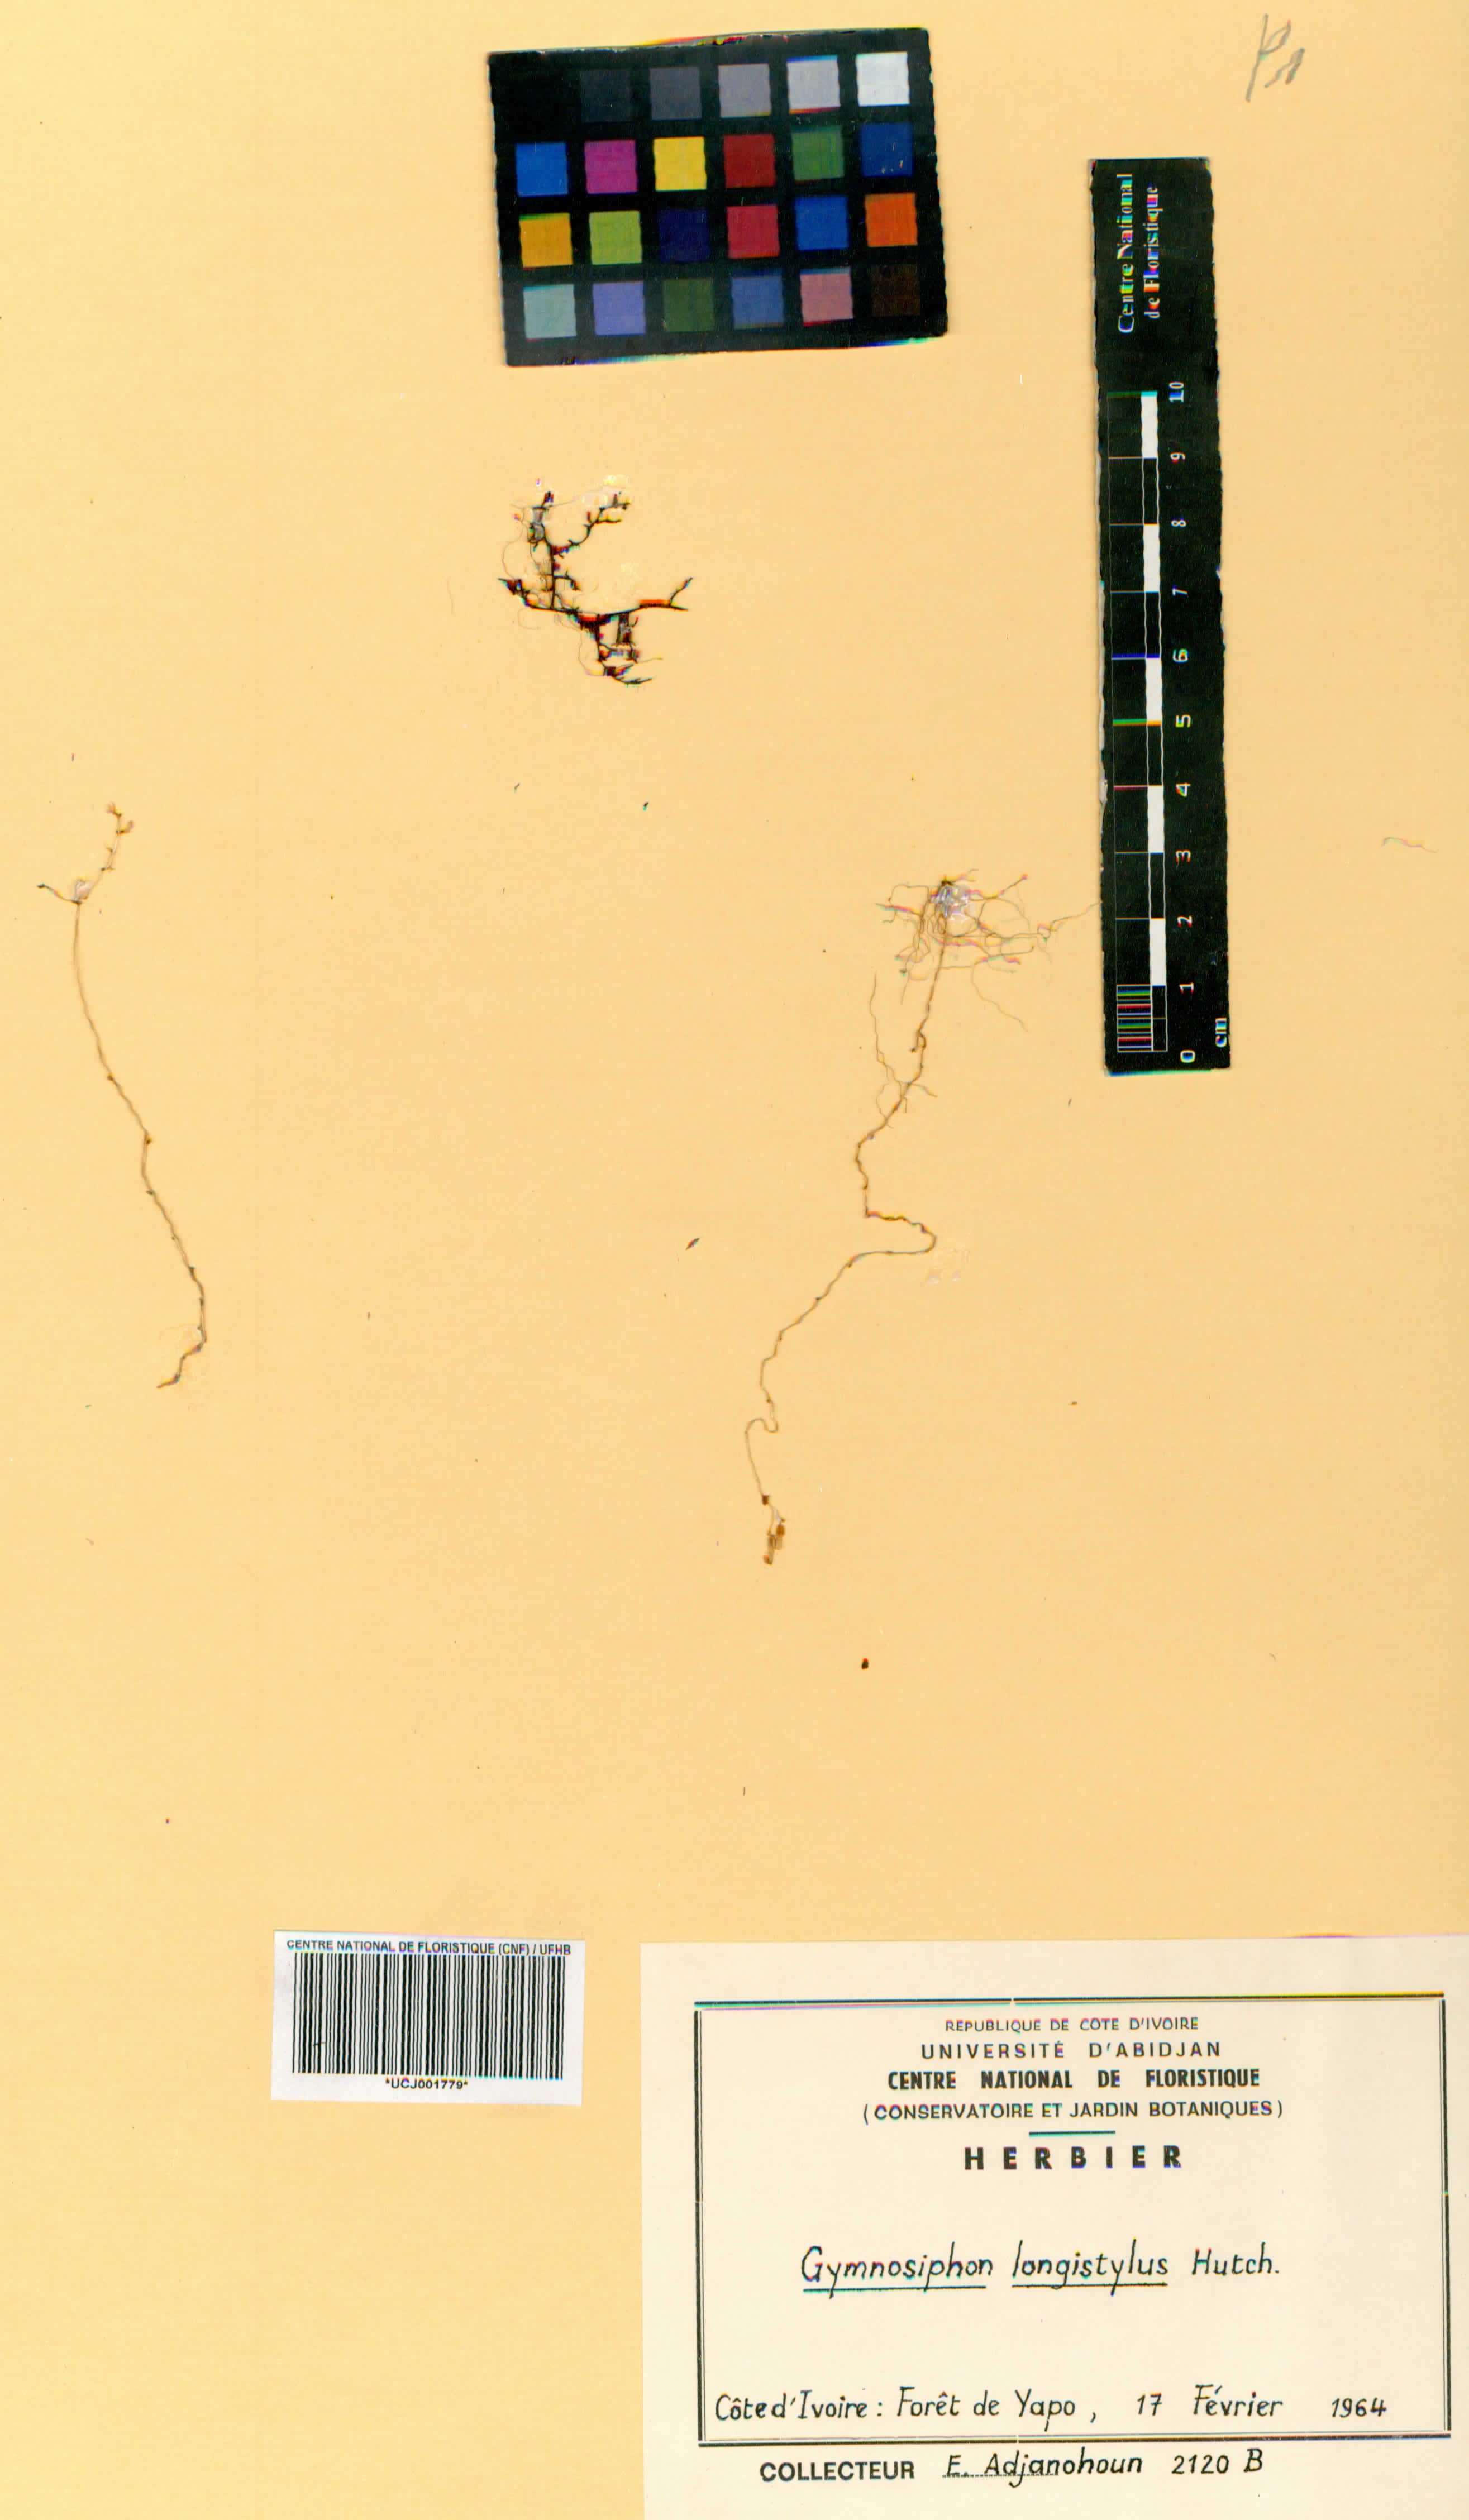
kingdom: Plantae
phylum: Tracheophyta
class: Liliopsida
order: Dioscoreales
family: Burmanniaceae
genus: Gymnosiphon
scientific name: Gymnosiphon longistylus
